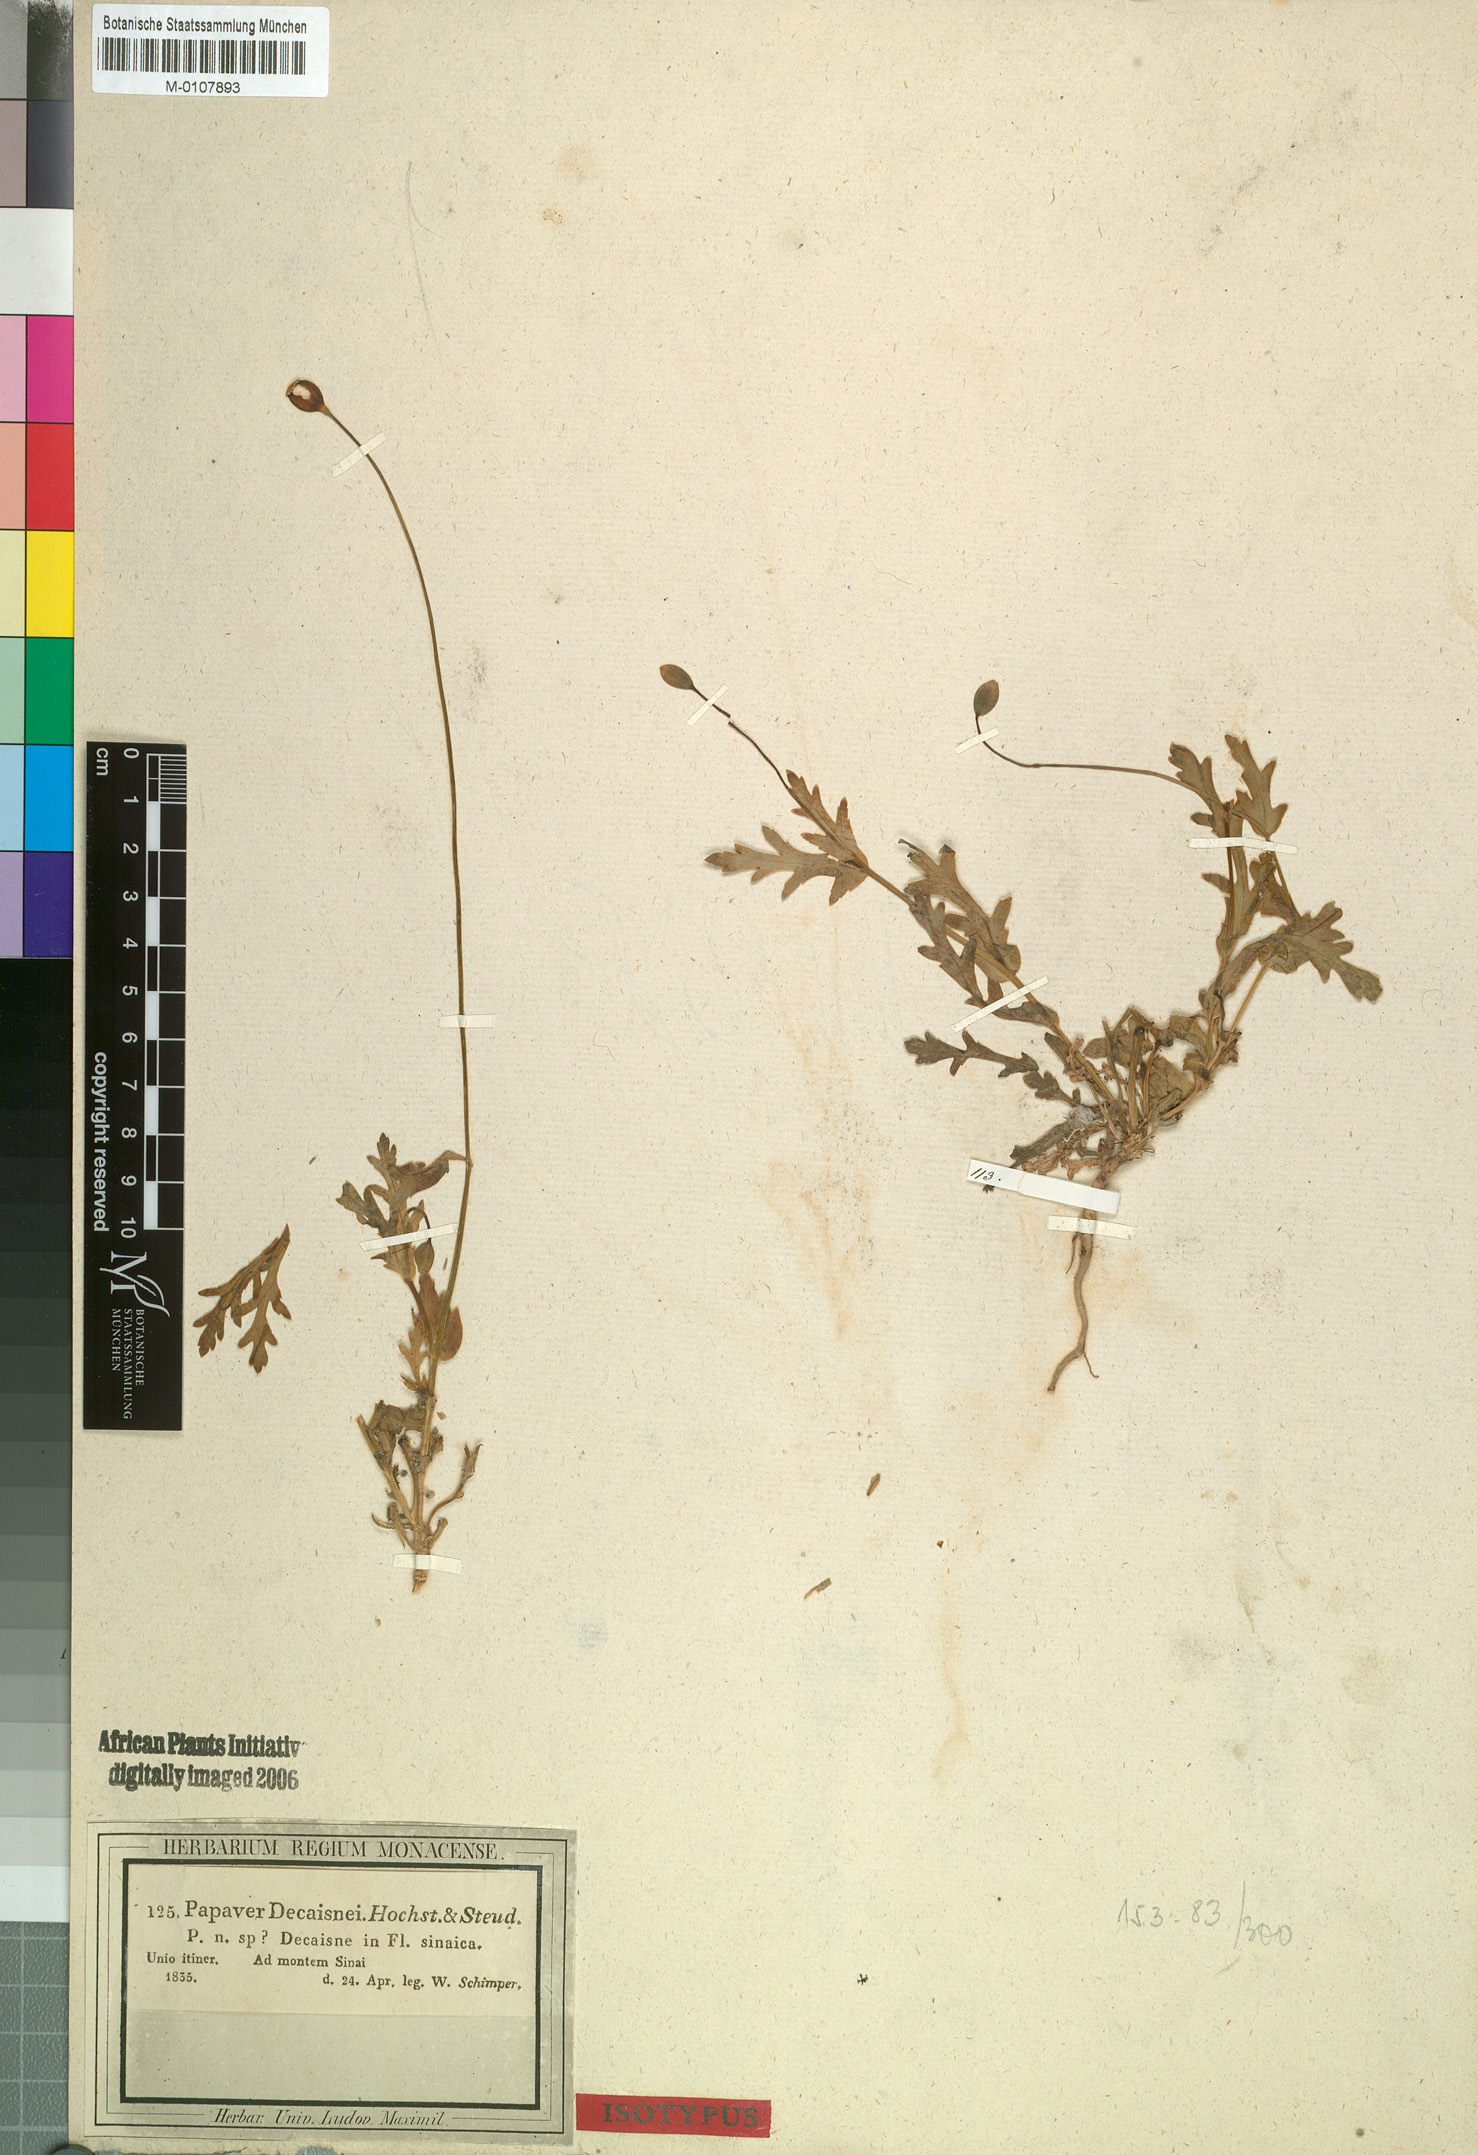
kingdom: Plantae
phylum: Tracheophyta
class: Magnoliopsida
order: Ranunculales
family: Papaveraceae
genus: Papaver
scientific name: Papaver decaisnei
